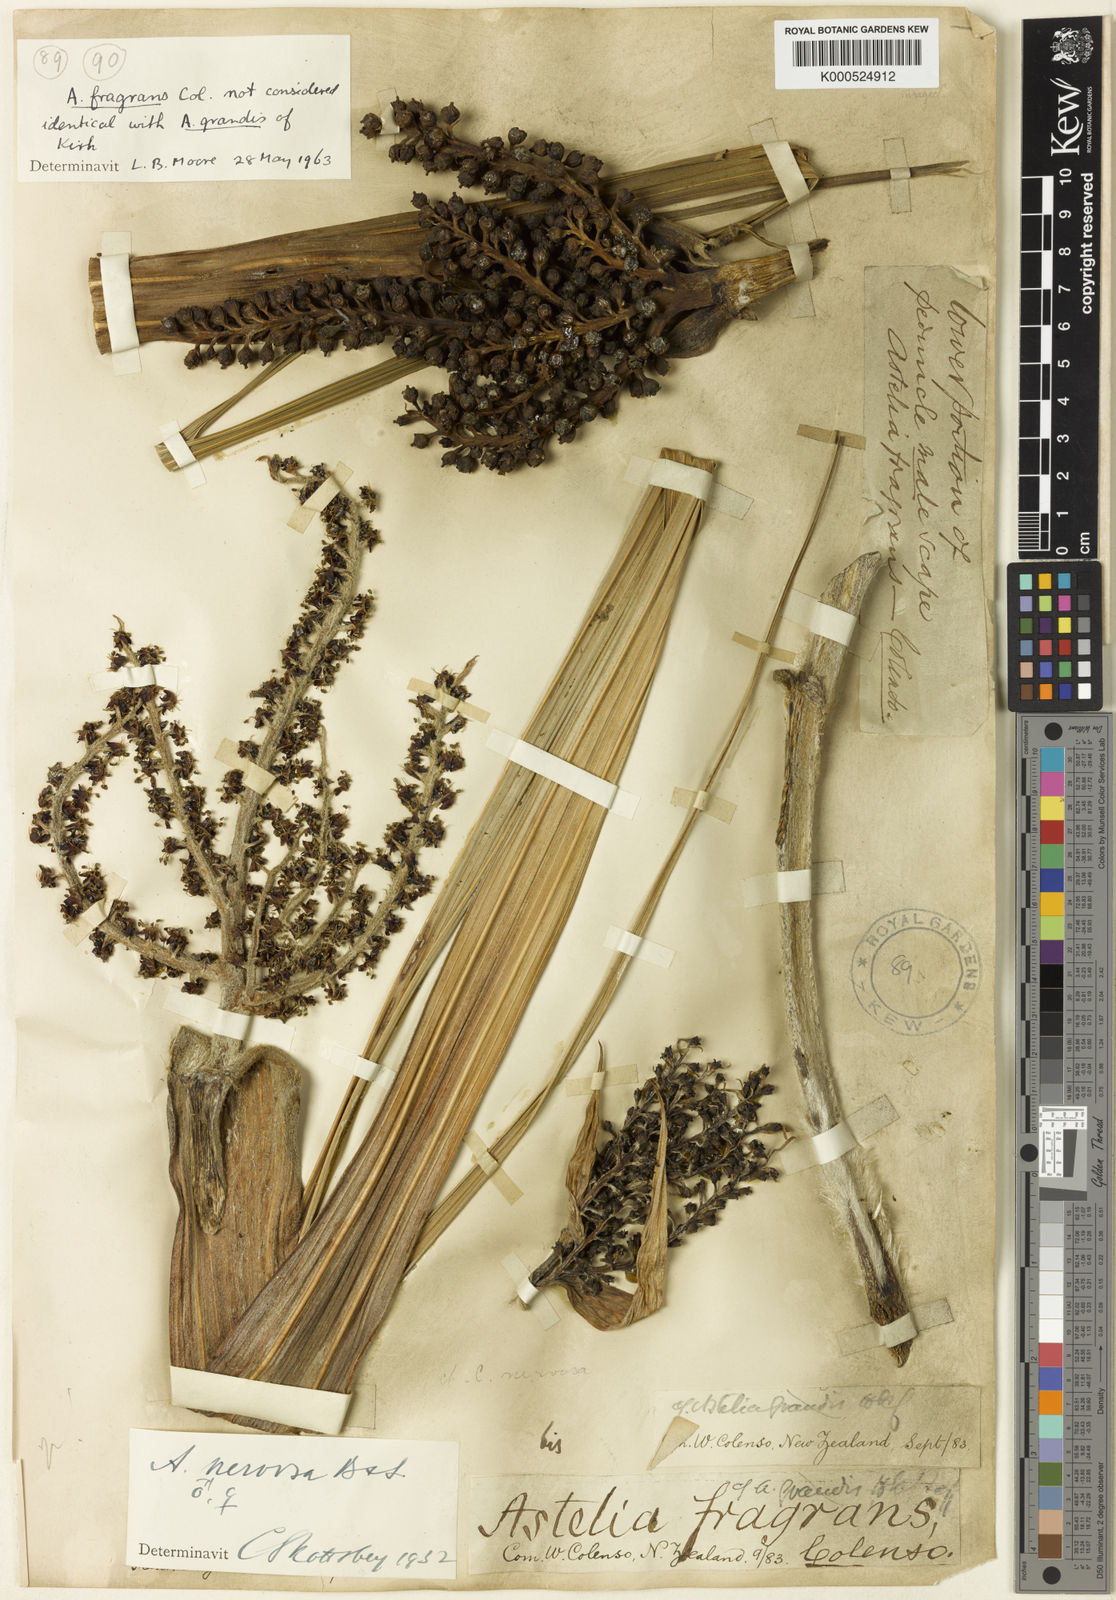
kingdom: Plantae
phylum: Tracheophyta
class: Liliopsida
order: Asparagales
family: Asteliaceae
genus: Astelia
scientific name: Astelia nervosa
